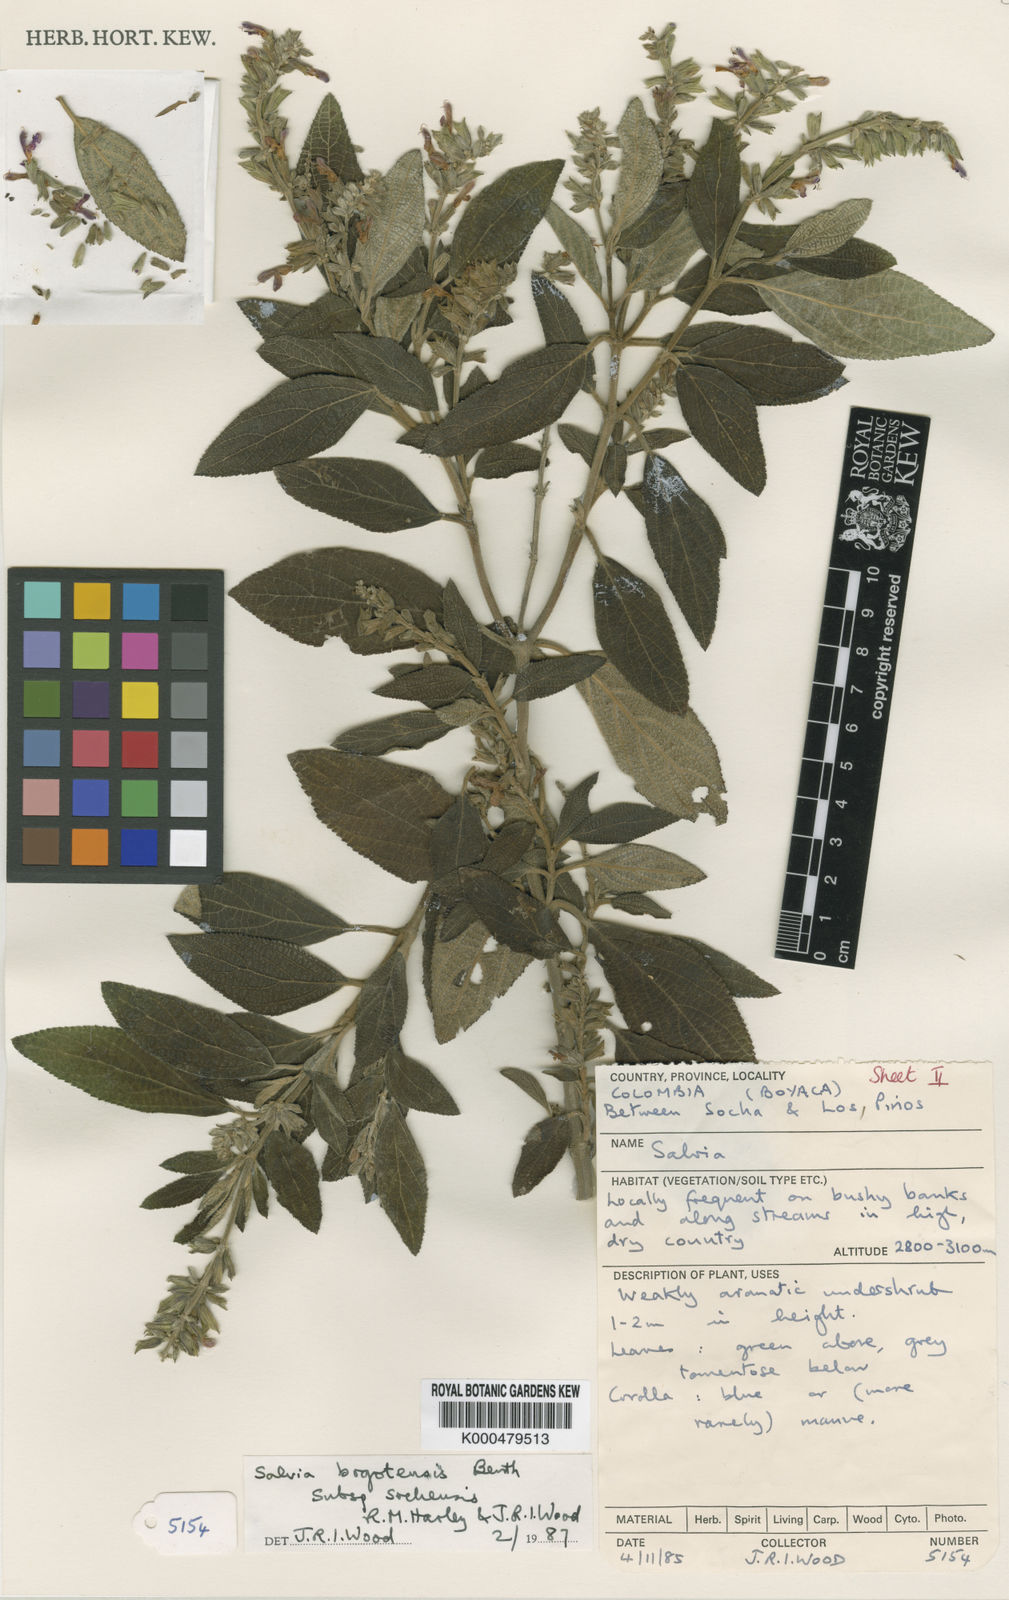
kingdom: Plantae
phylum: Tracheophyta
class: Magnoliopsida
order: Lamiales
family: Lamiaceae
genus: Salvia
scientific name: Salvia bogotensis
